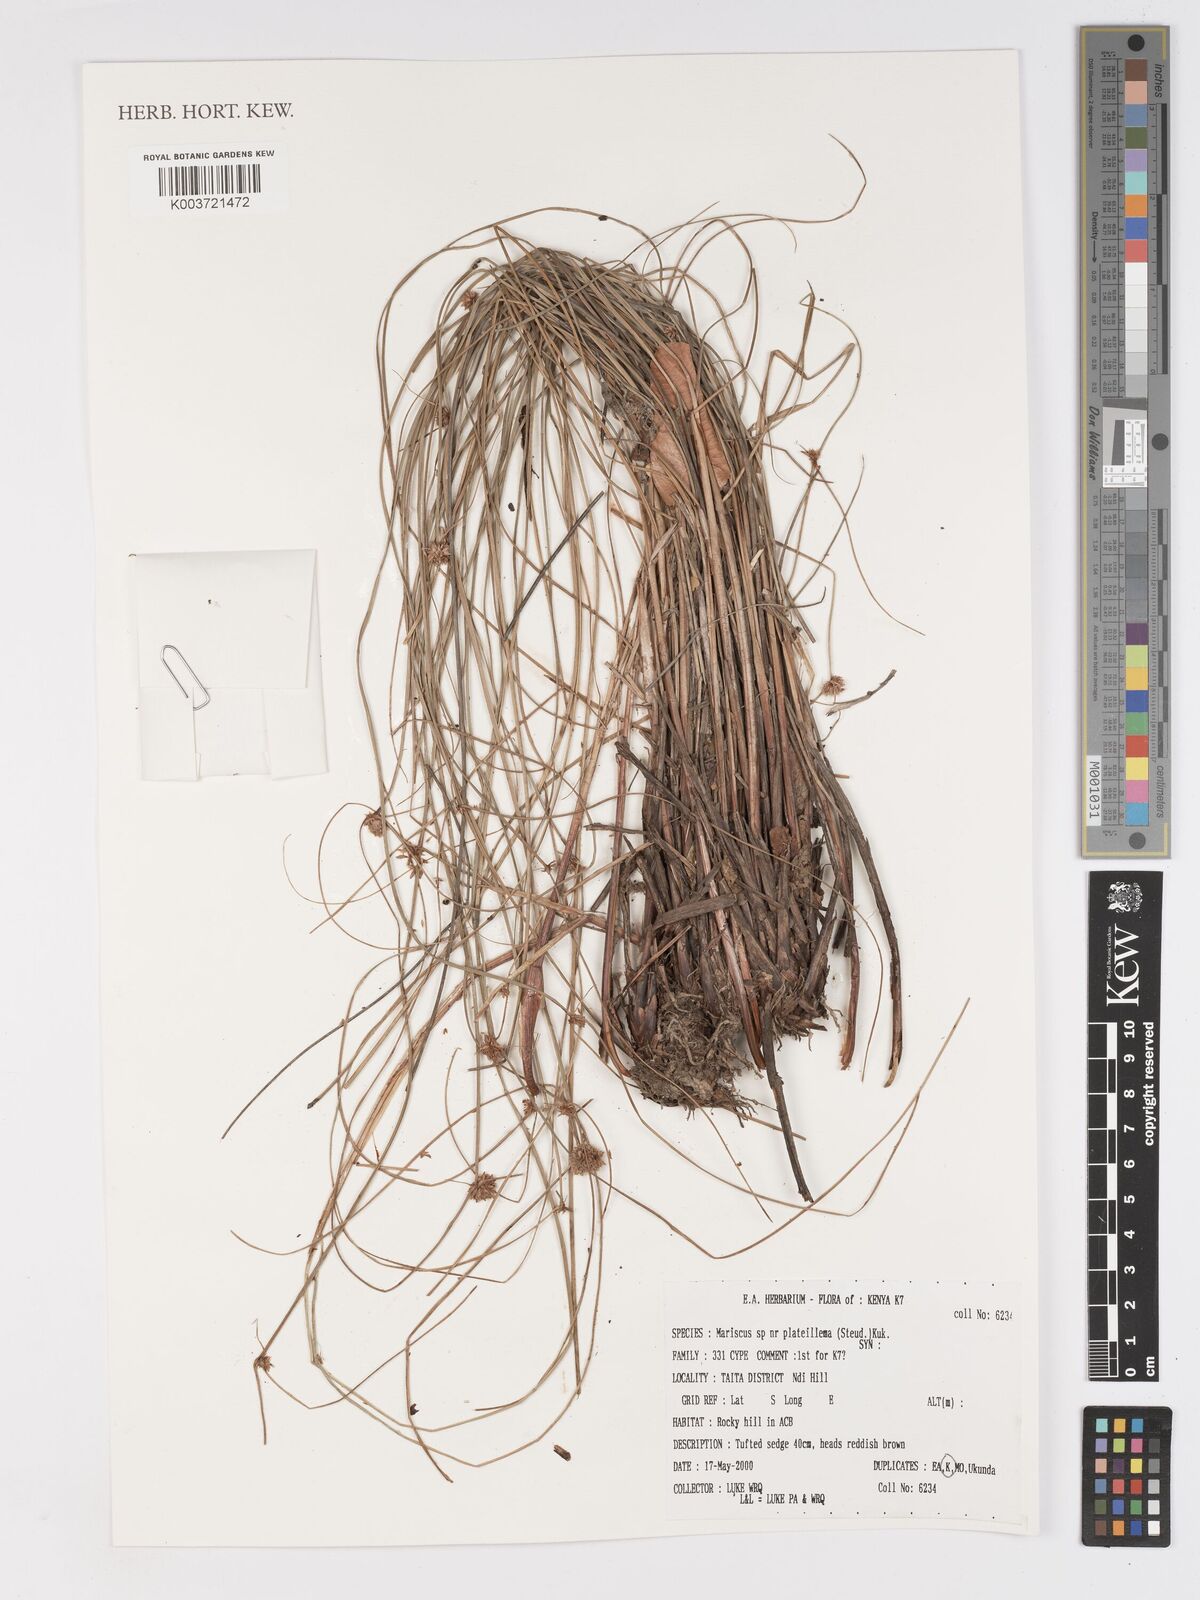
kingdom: Plantae
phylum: Tracheophyta
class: Liliopsida
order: Poales
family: Cyperaceae
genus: Cyperus
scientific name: Cyperus plateilema
